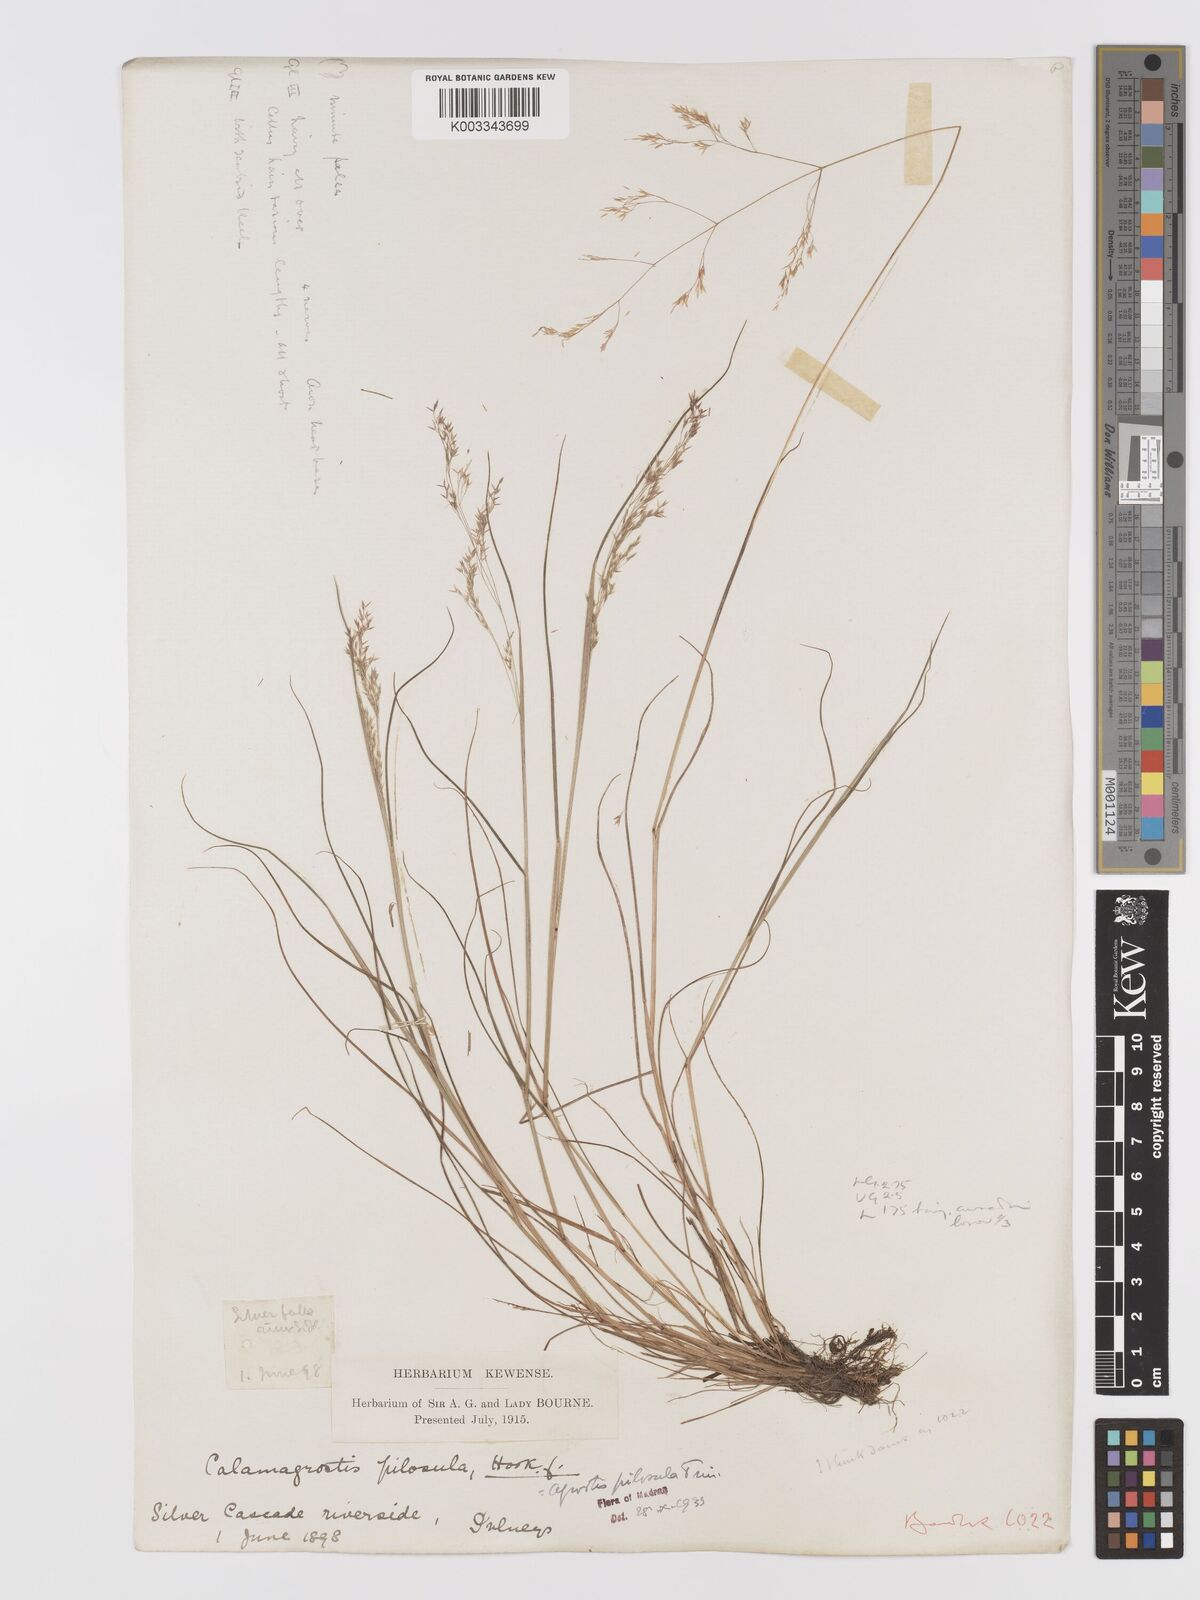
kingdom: Plantae
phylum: Tracheophyta
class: Liliopsida
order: Poales
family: Poaceae
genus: Agrostis
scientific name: Agrostis pilosula
